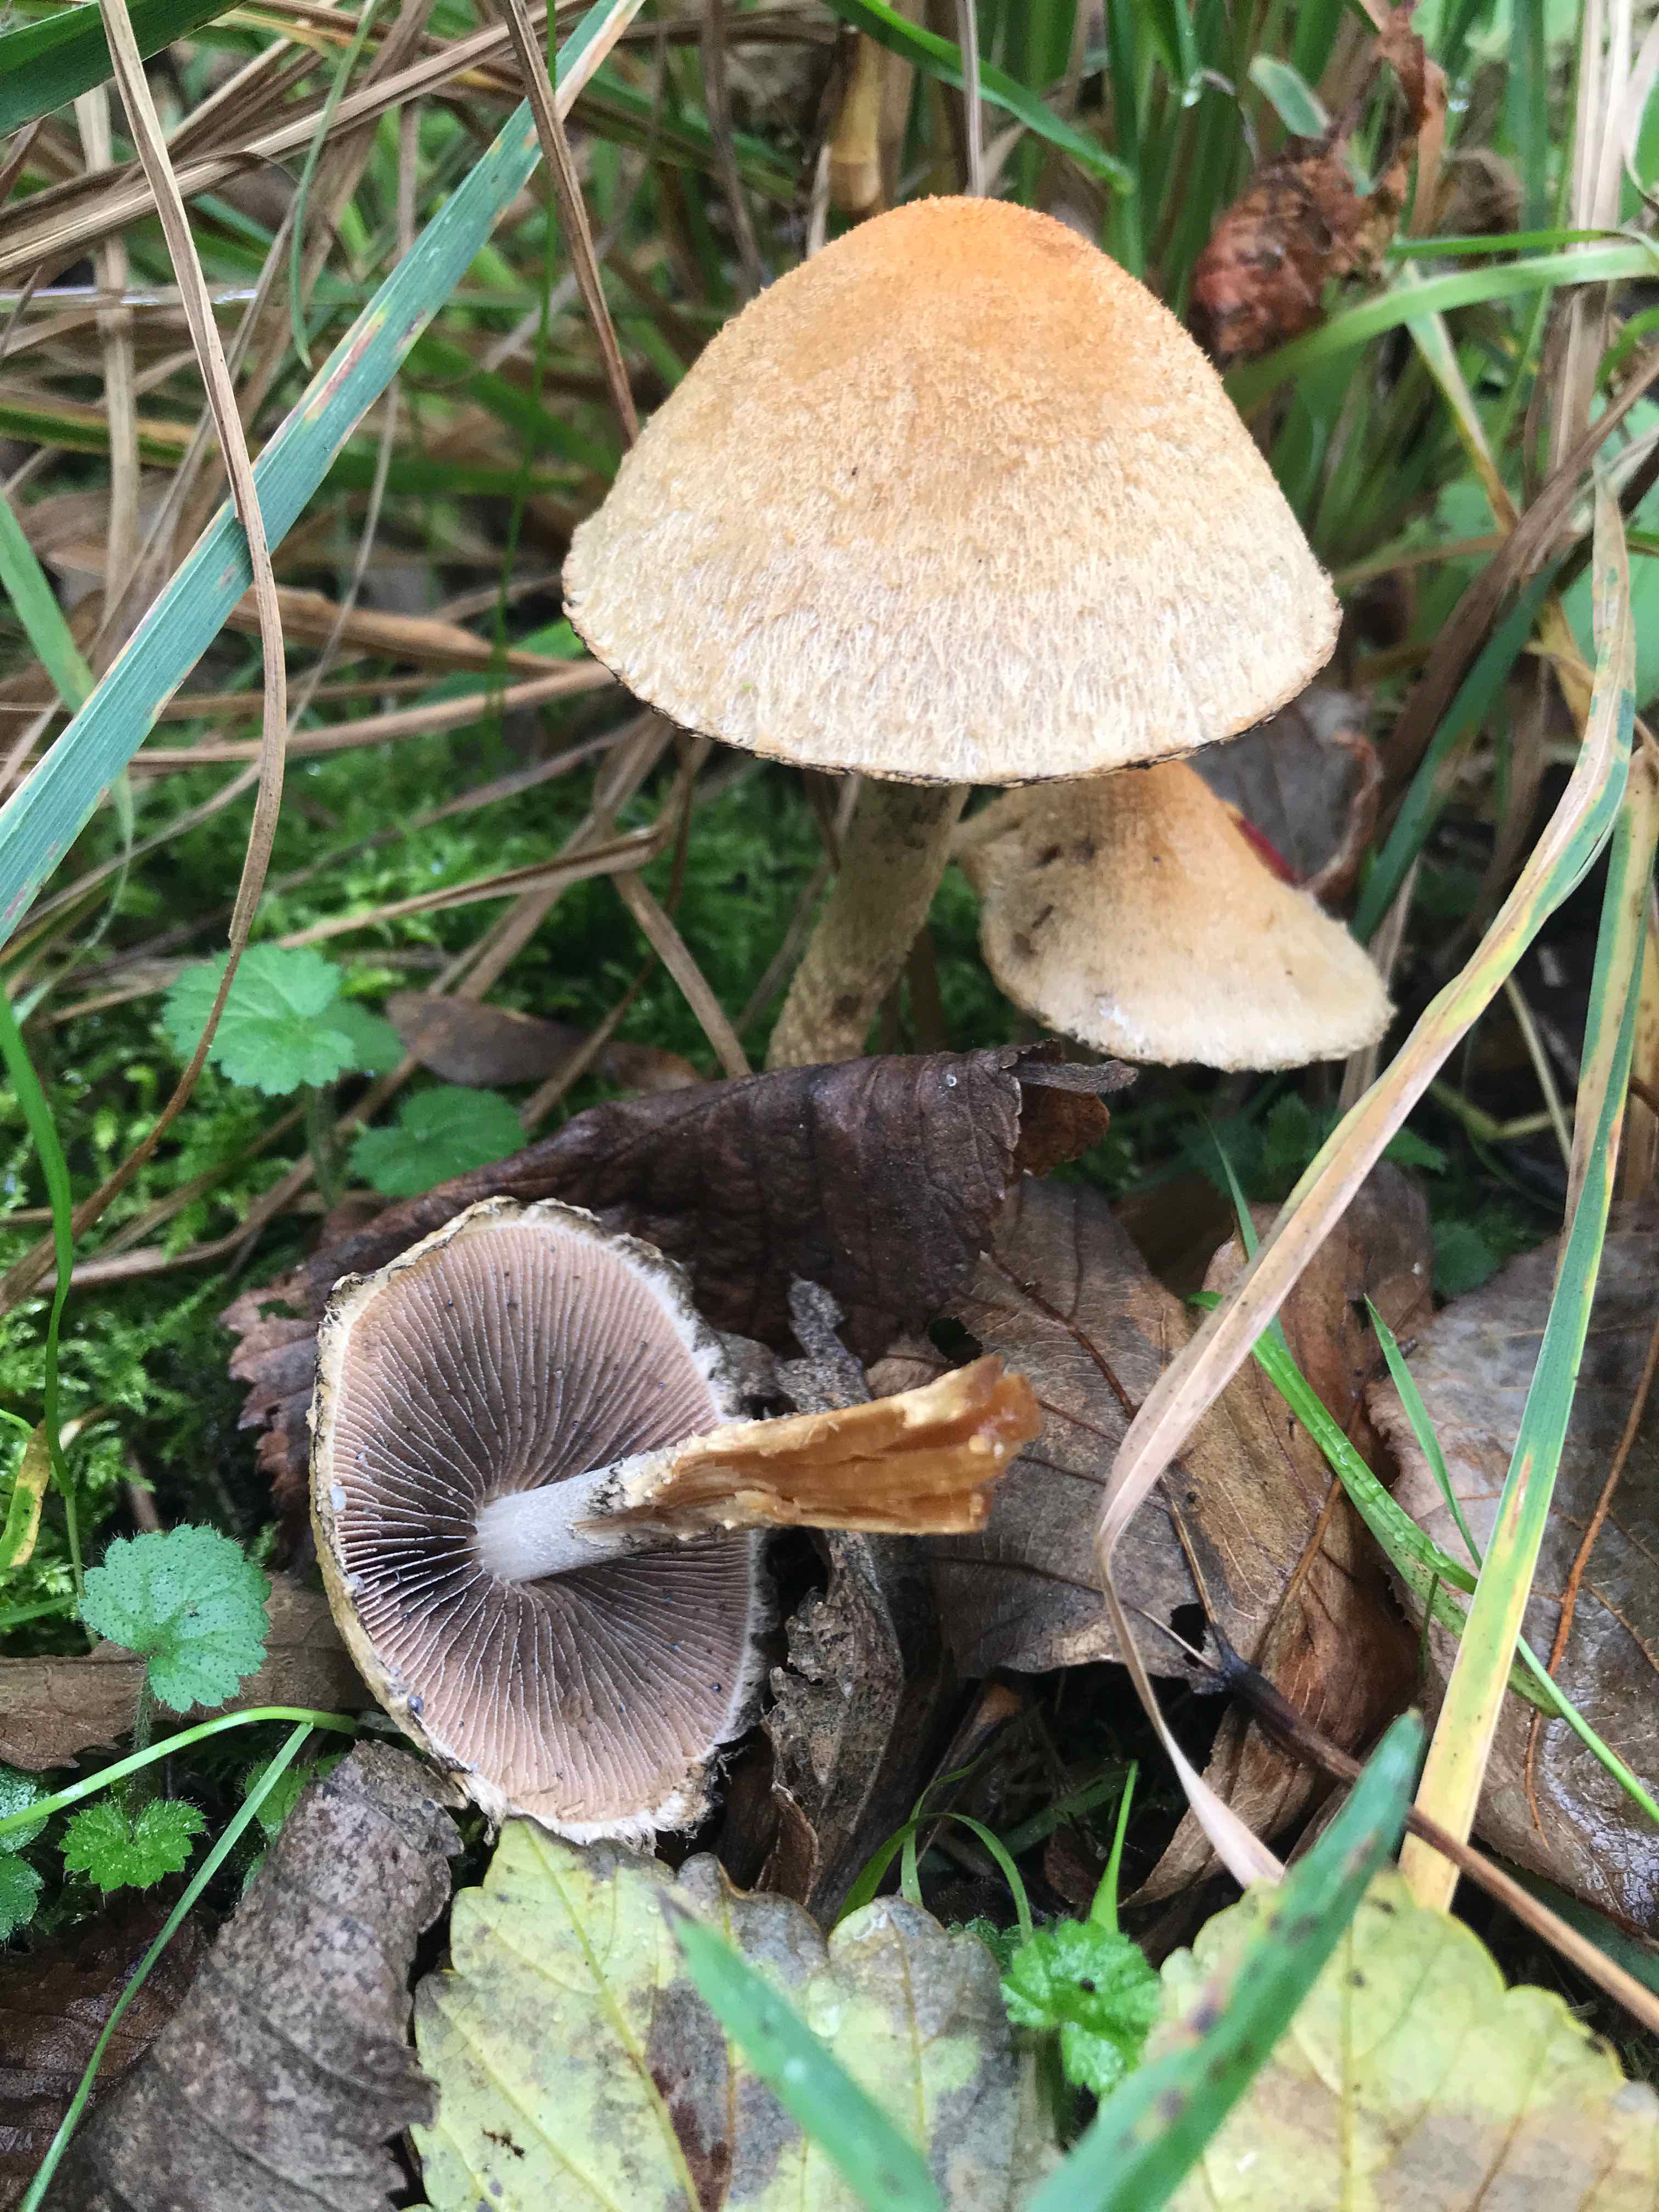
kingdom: Fungi
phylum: Basidiomycota
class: Agaricomycetes
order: Agaricales
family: Psathyrellaceae
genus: Lacrymaria
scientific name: Lacrymaria lacrymabunda
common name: grædende mørkhat
